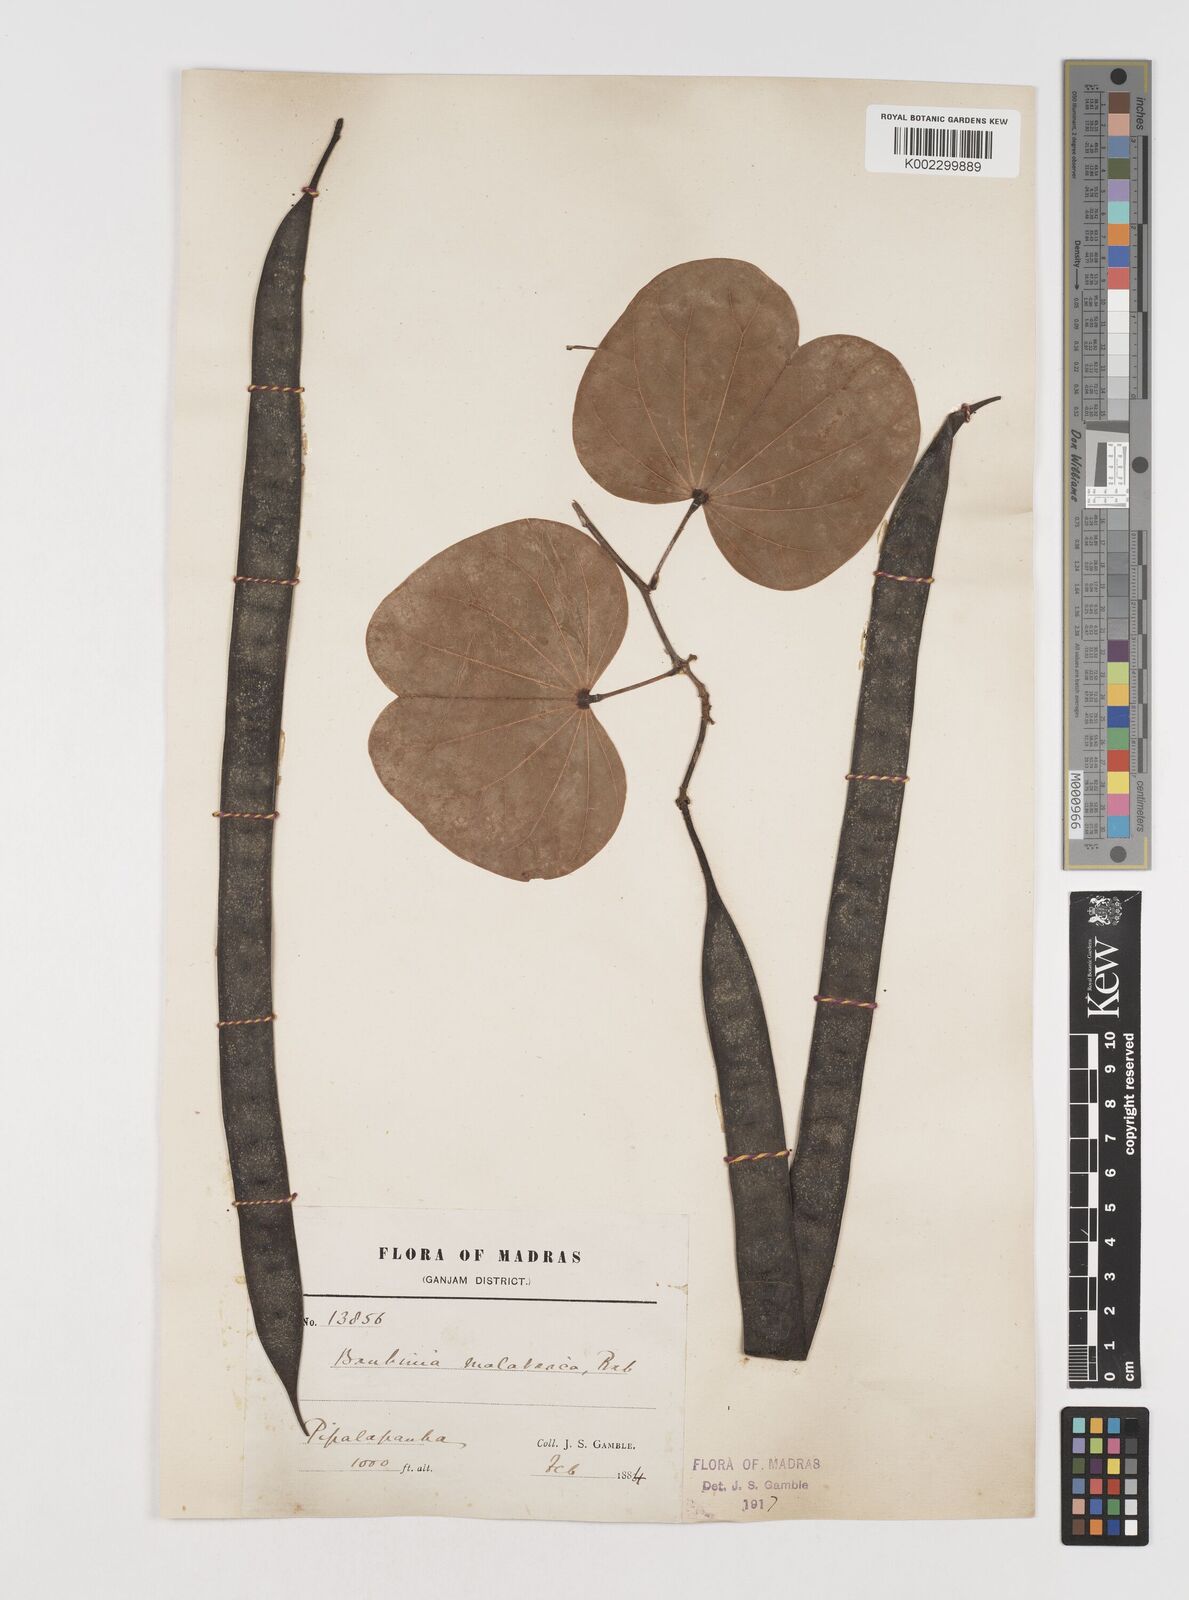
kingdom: Plantae
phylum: Tracheophyta
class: Magnoliopsida
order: Fabales
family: Fabaceae
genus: Piliostigma
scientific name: Piliostigma malabaricum
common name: Malabar bauhinia
